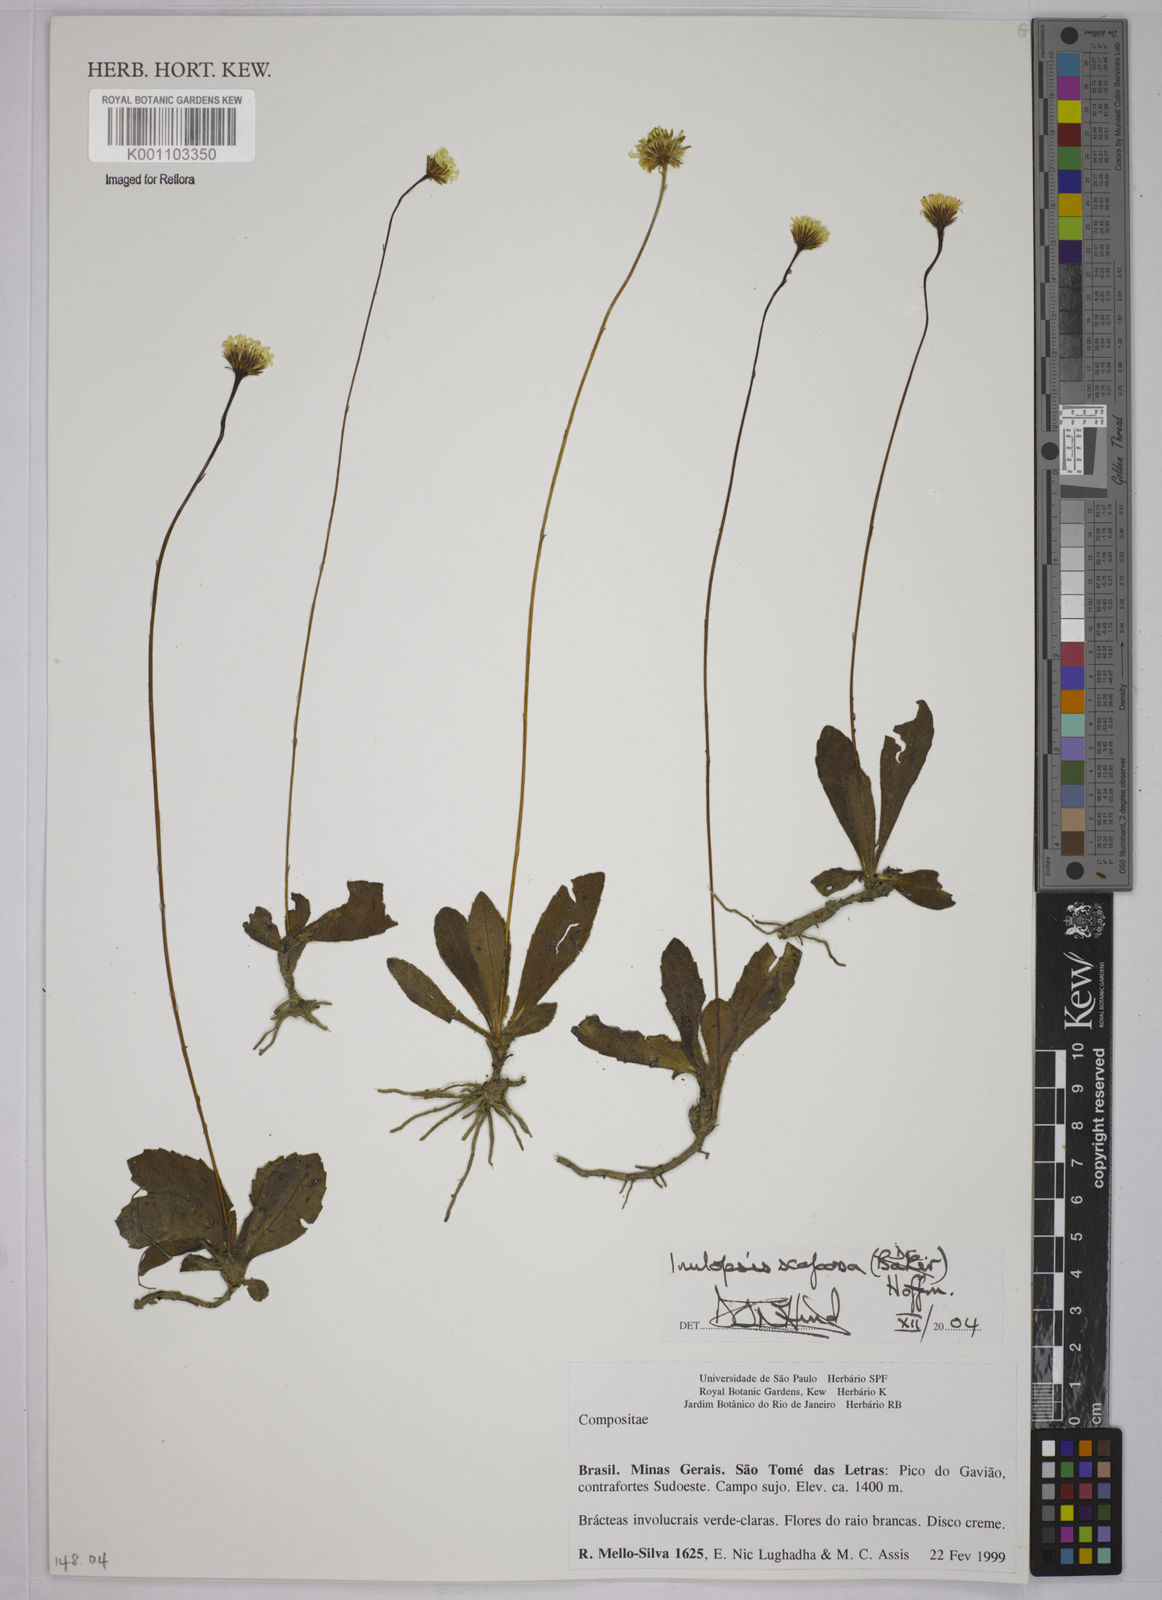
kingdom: Plantae
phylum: Tracheophyta
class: Magnoliopsida
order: Asterales
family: Asteraceae
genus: Inulopsis
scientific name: Inulopsis scaposa
